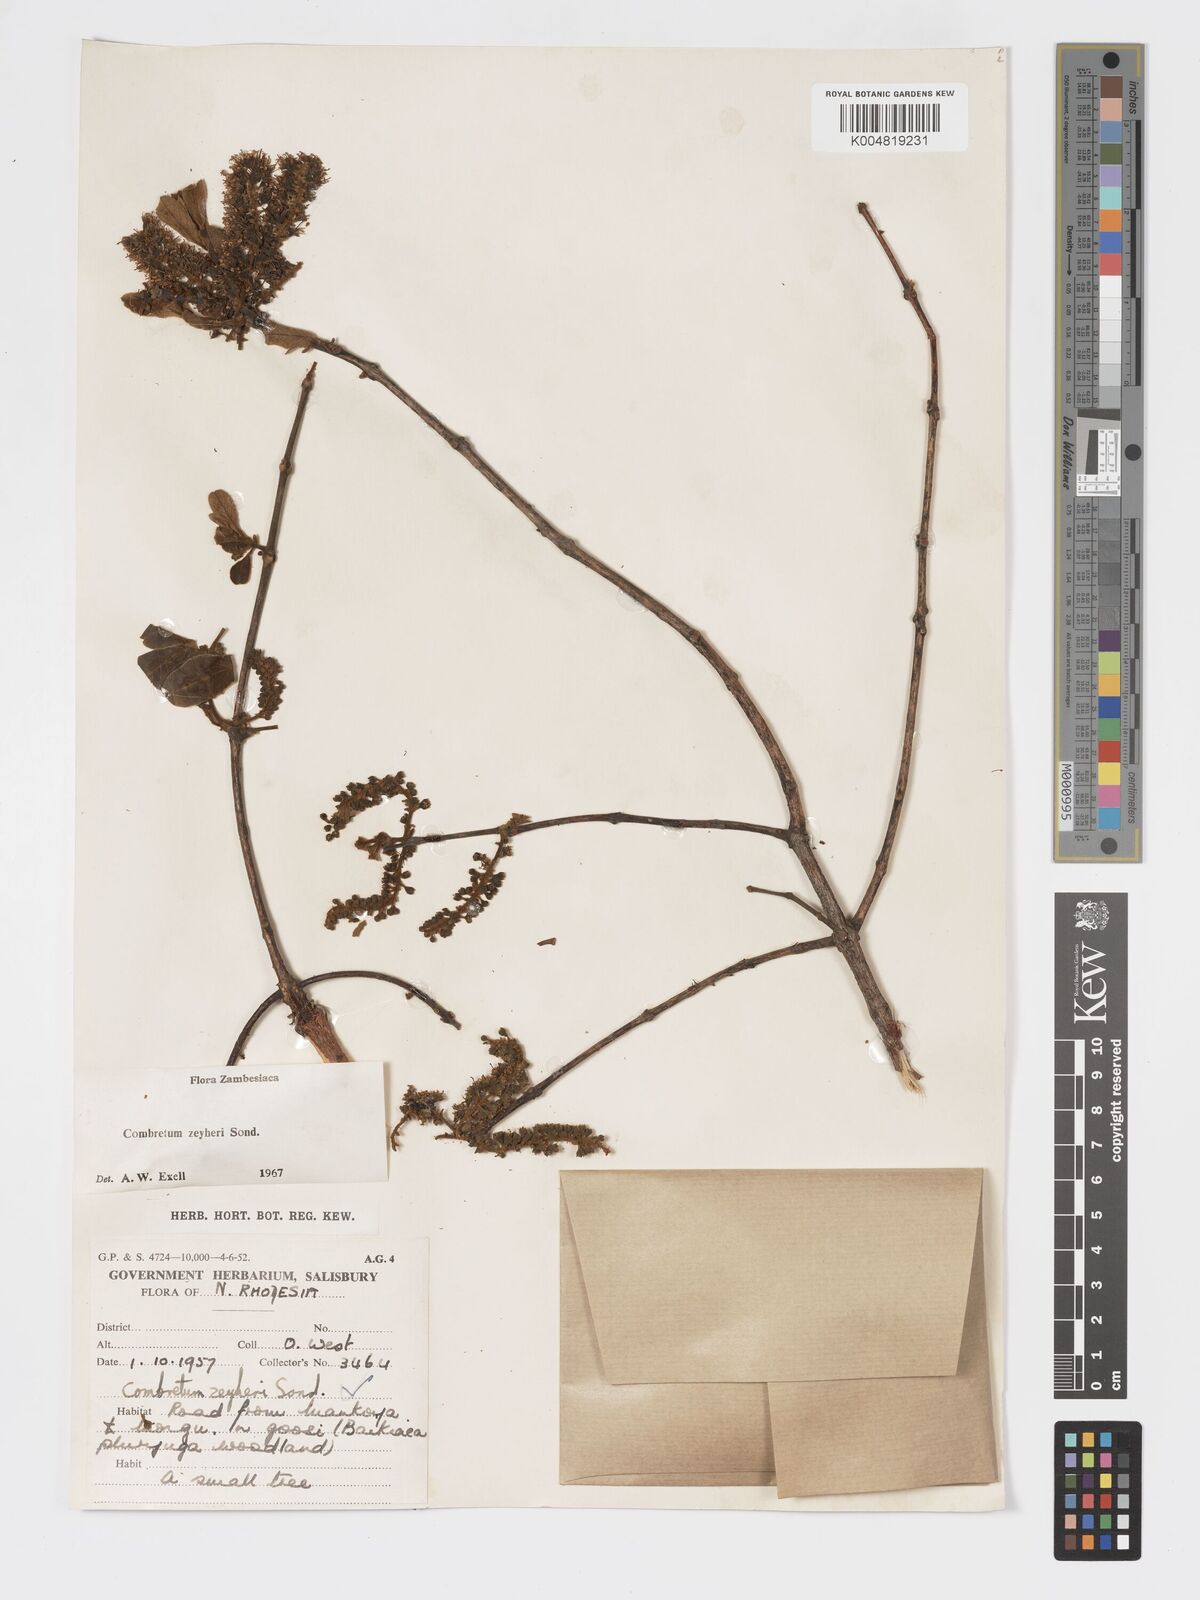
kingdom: Plantae
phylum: Tracheophyta
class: Magnoliopsida
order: Myrtales
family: Combretaceae
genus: Combretum
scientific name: Combretum zeyheri
